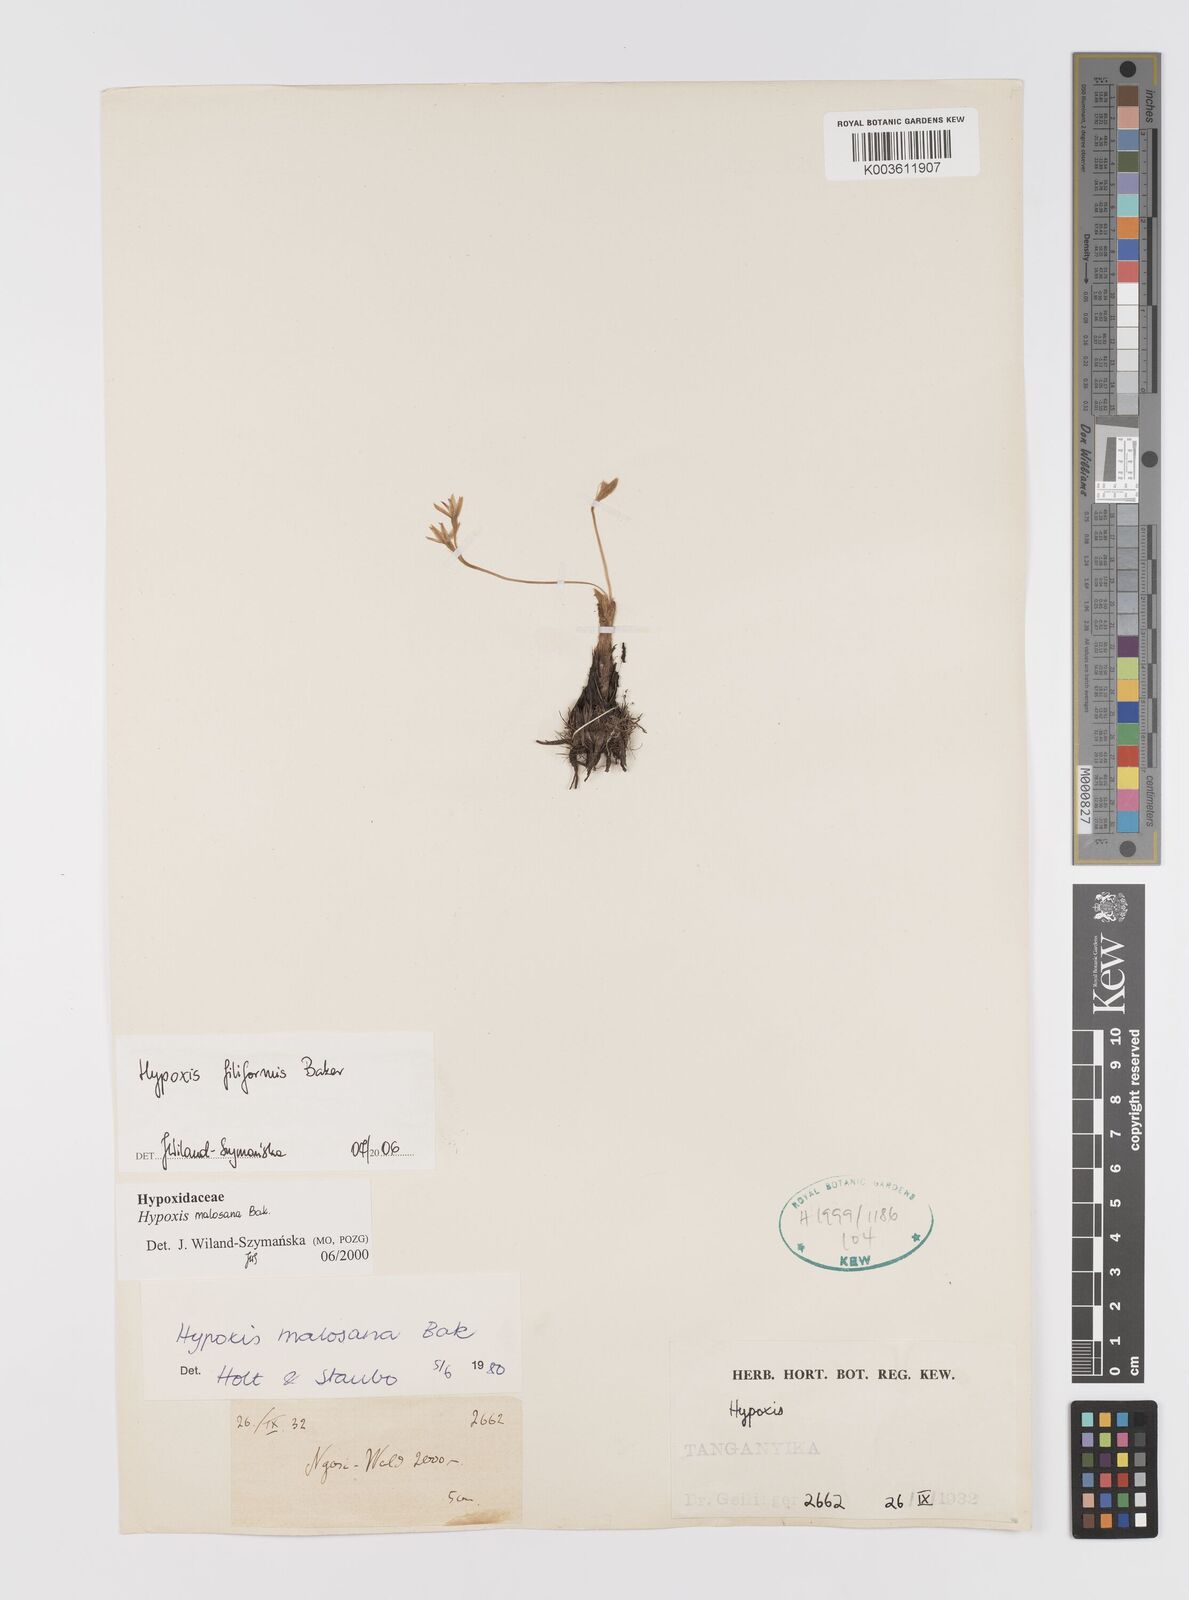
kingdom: Plantae
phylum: Tracheophyta
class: Liliopsida
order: Asparagales
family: Hypoxidaceae
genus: Hypoxis
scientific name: Hypoxis filiformis
